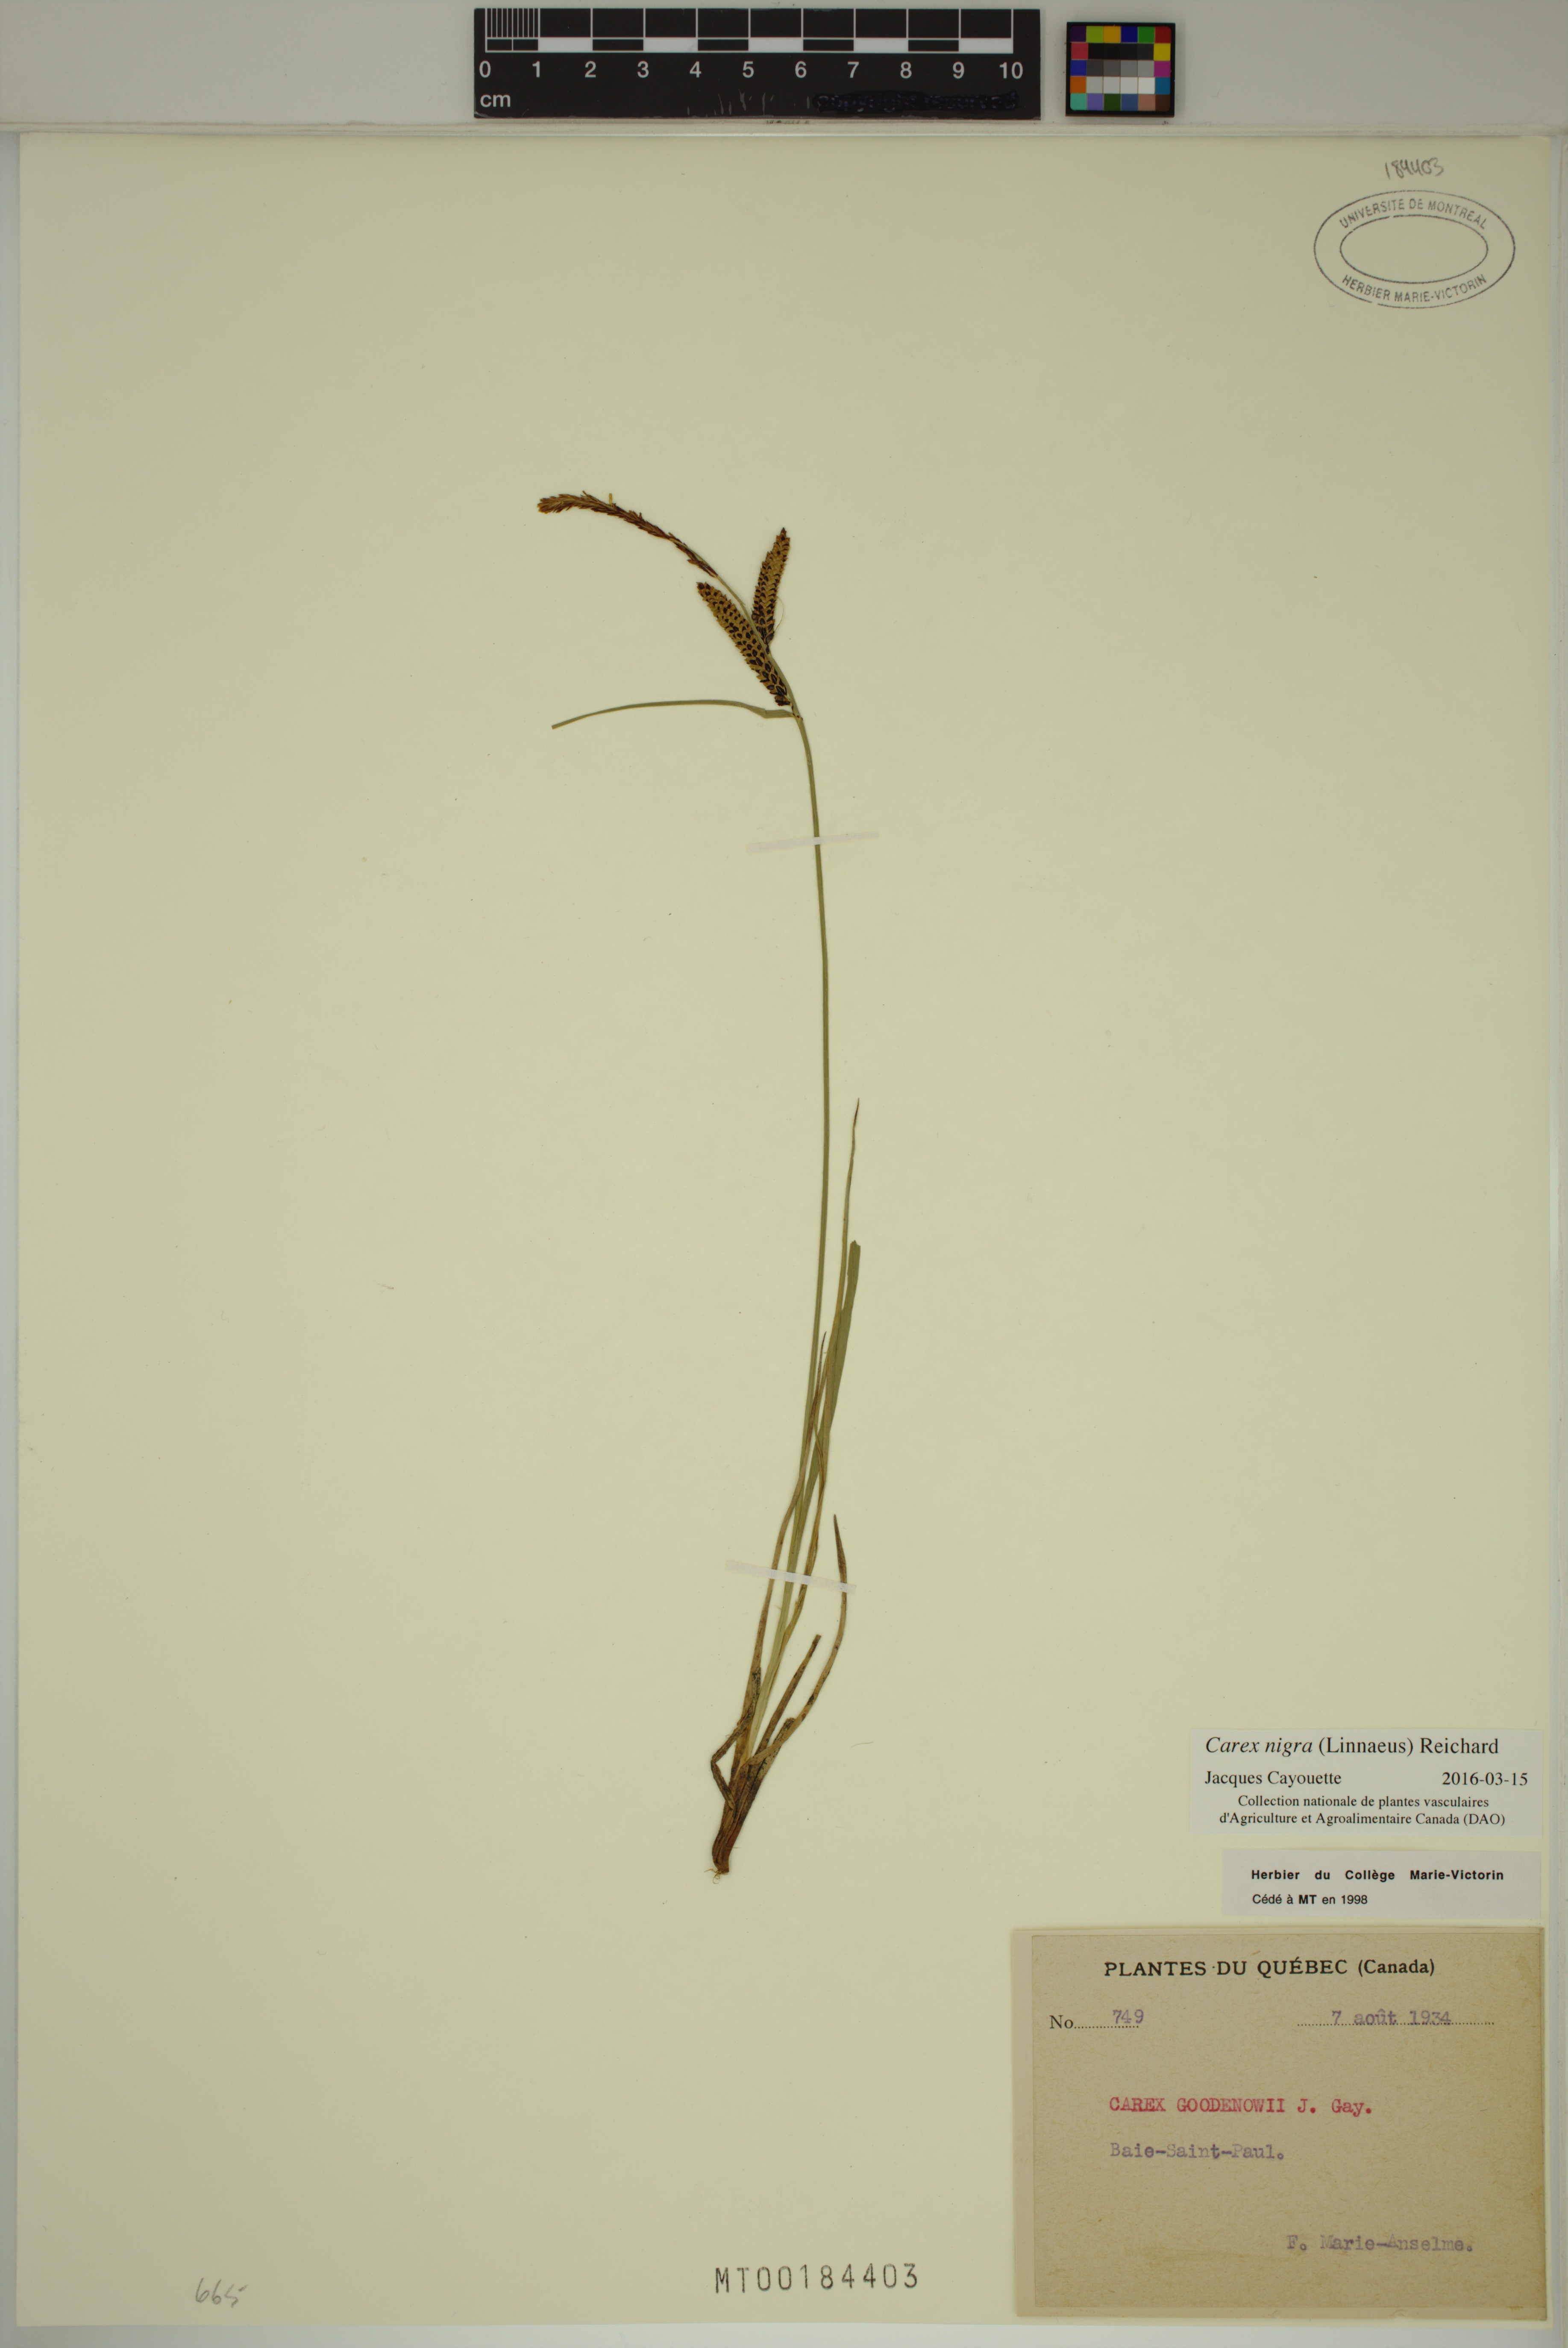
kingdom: Plantae
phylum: Tracheophyta
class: Liliopsida
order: Poales
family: Cyperaceae
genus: Carex
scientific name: Carex nigra
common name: Common sedge
